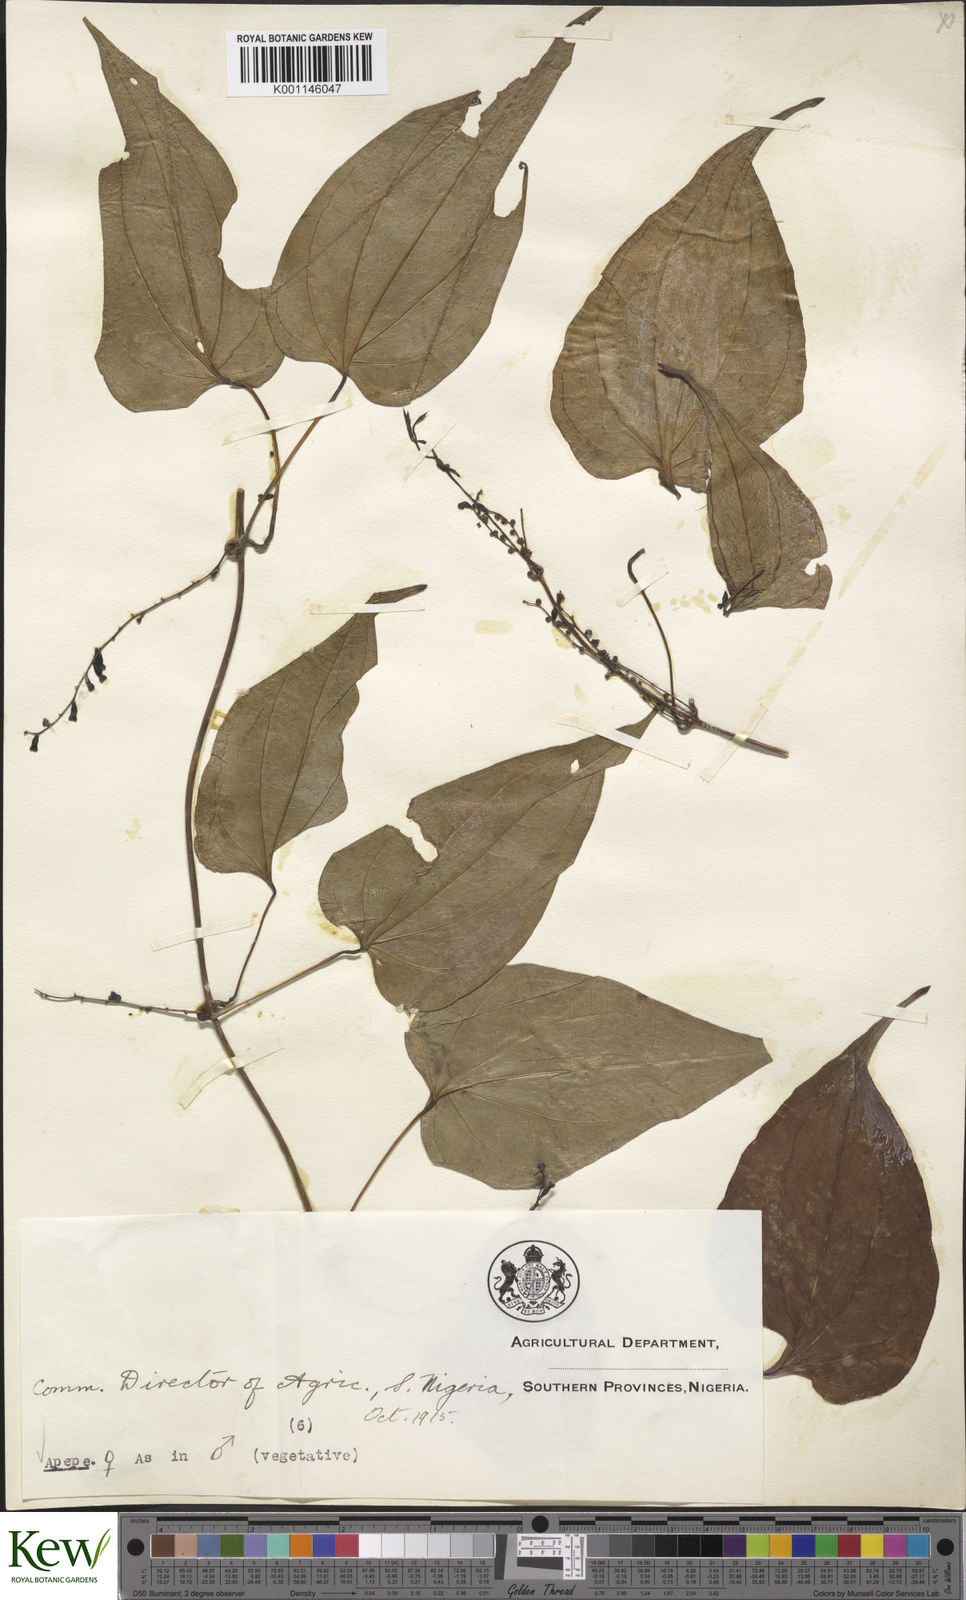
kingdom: Plantae
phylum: Tracheophyta
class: Liliopsida
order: Dioscoreales
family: Dioscoreaceae
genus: Dioscorea
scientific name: Dioscorea baya
